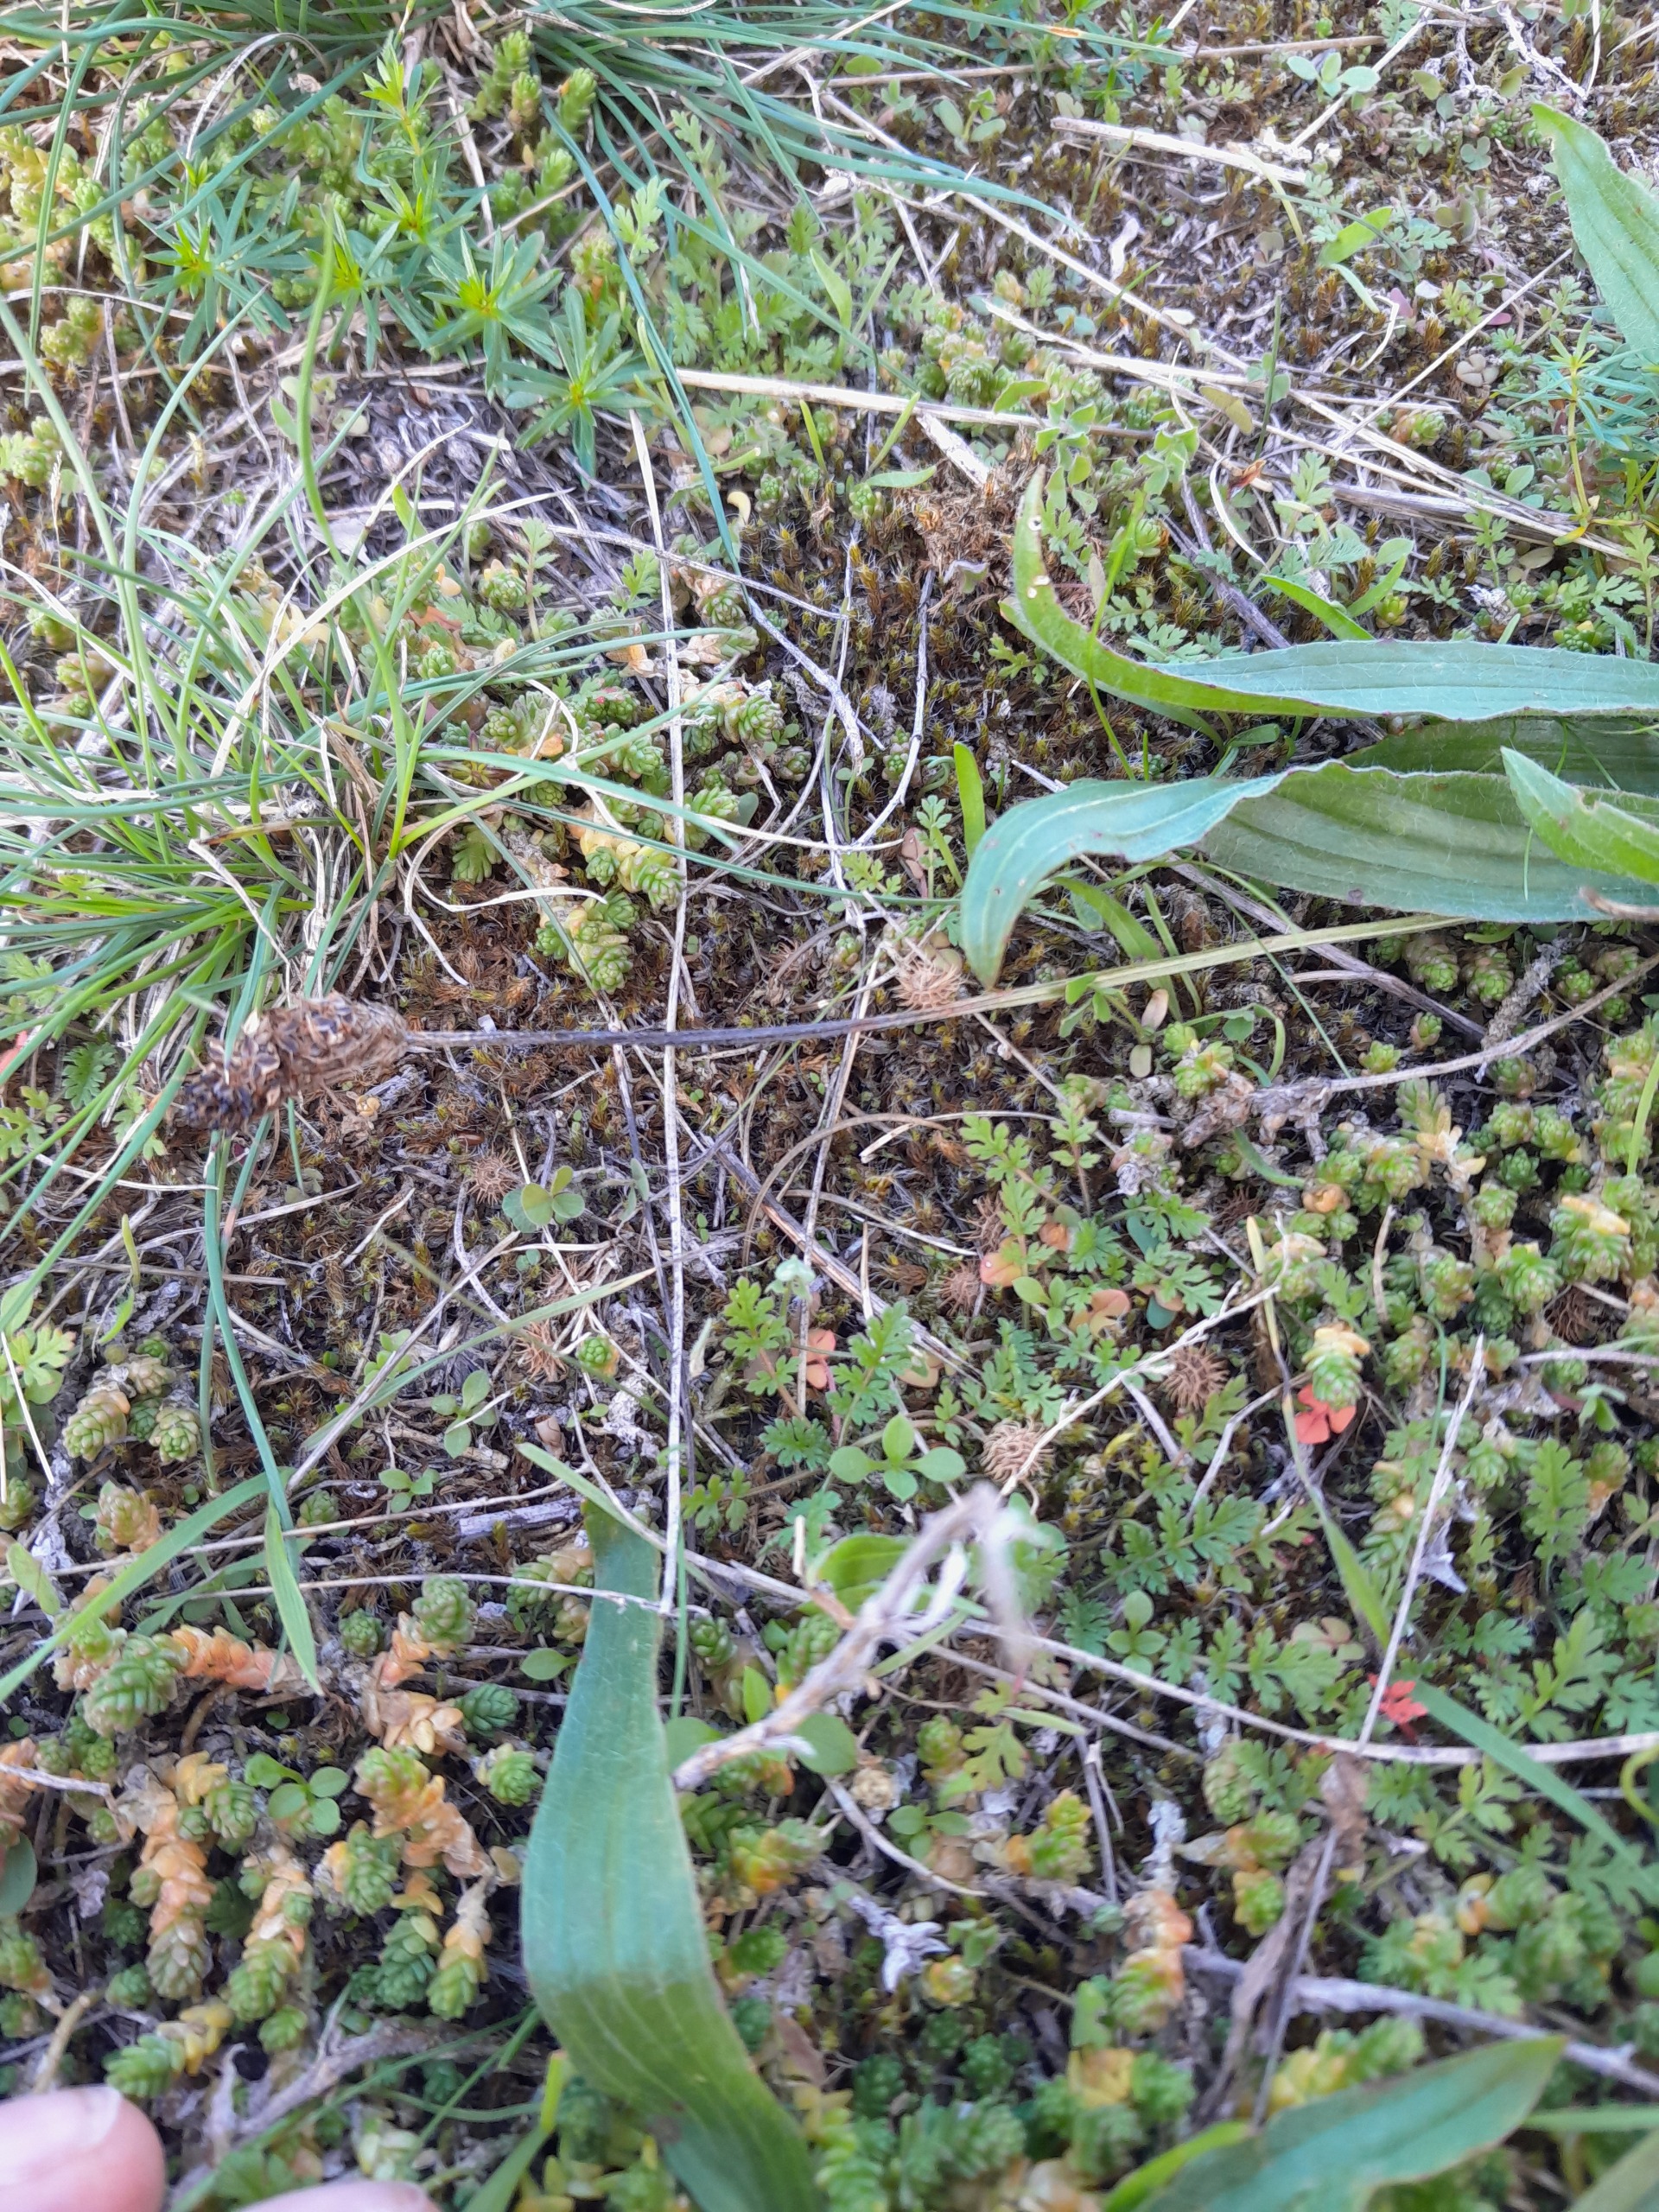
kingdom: Plantae
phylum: Tracheophyta
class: Magnoliopsida
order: Fabales
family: Fabaceae
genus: Medicago
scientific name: Medicago minima
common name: Liden sneglebælg
